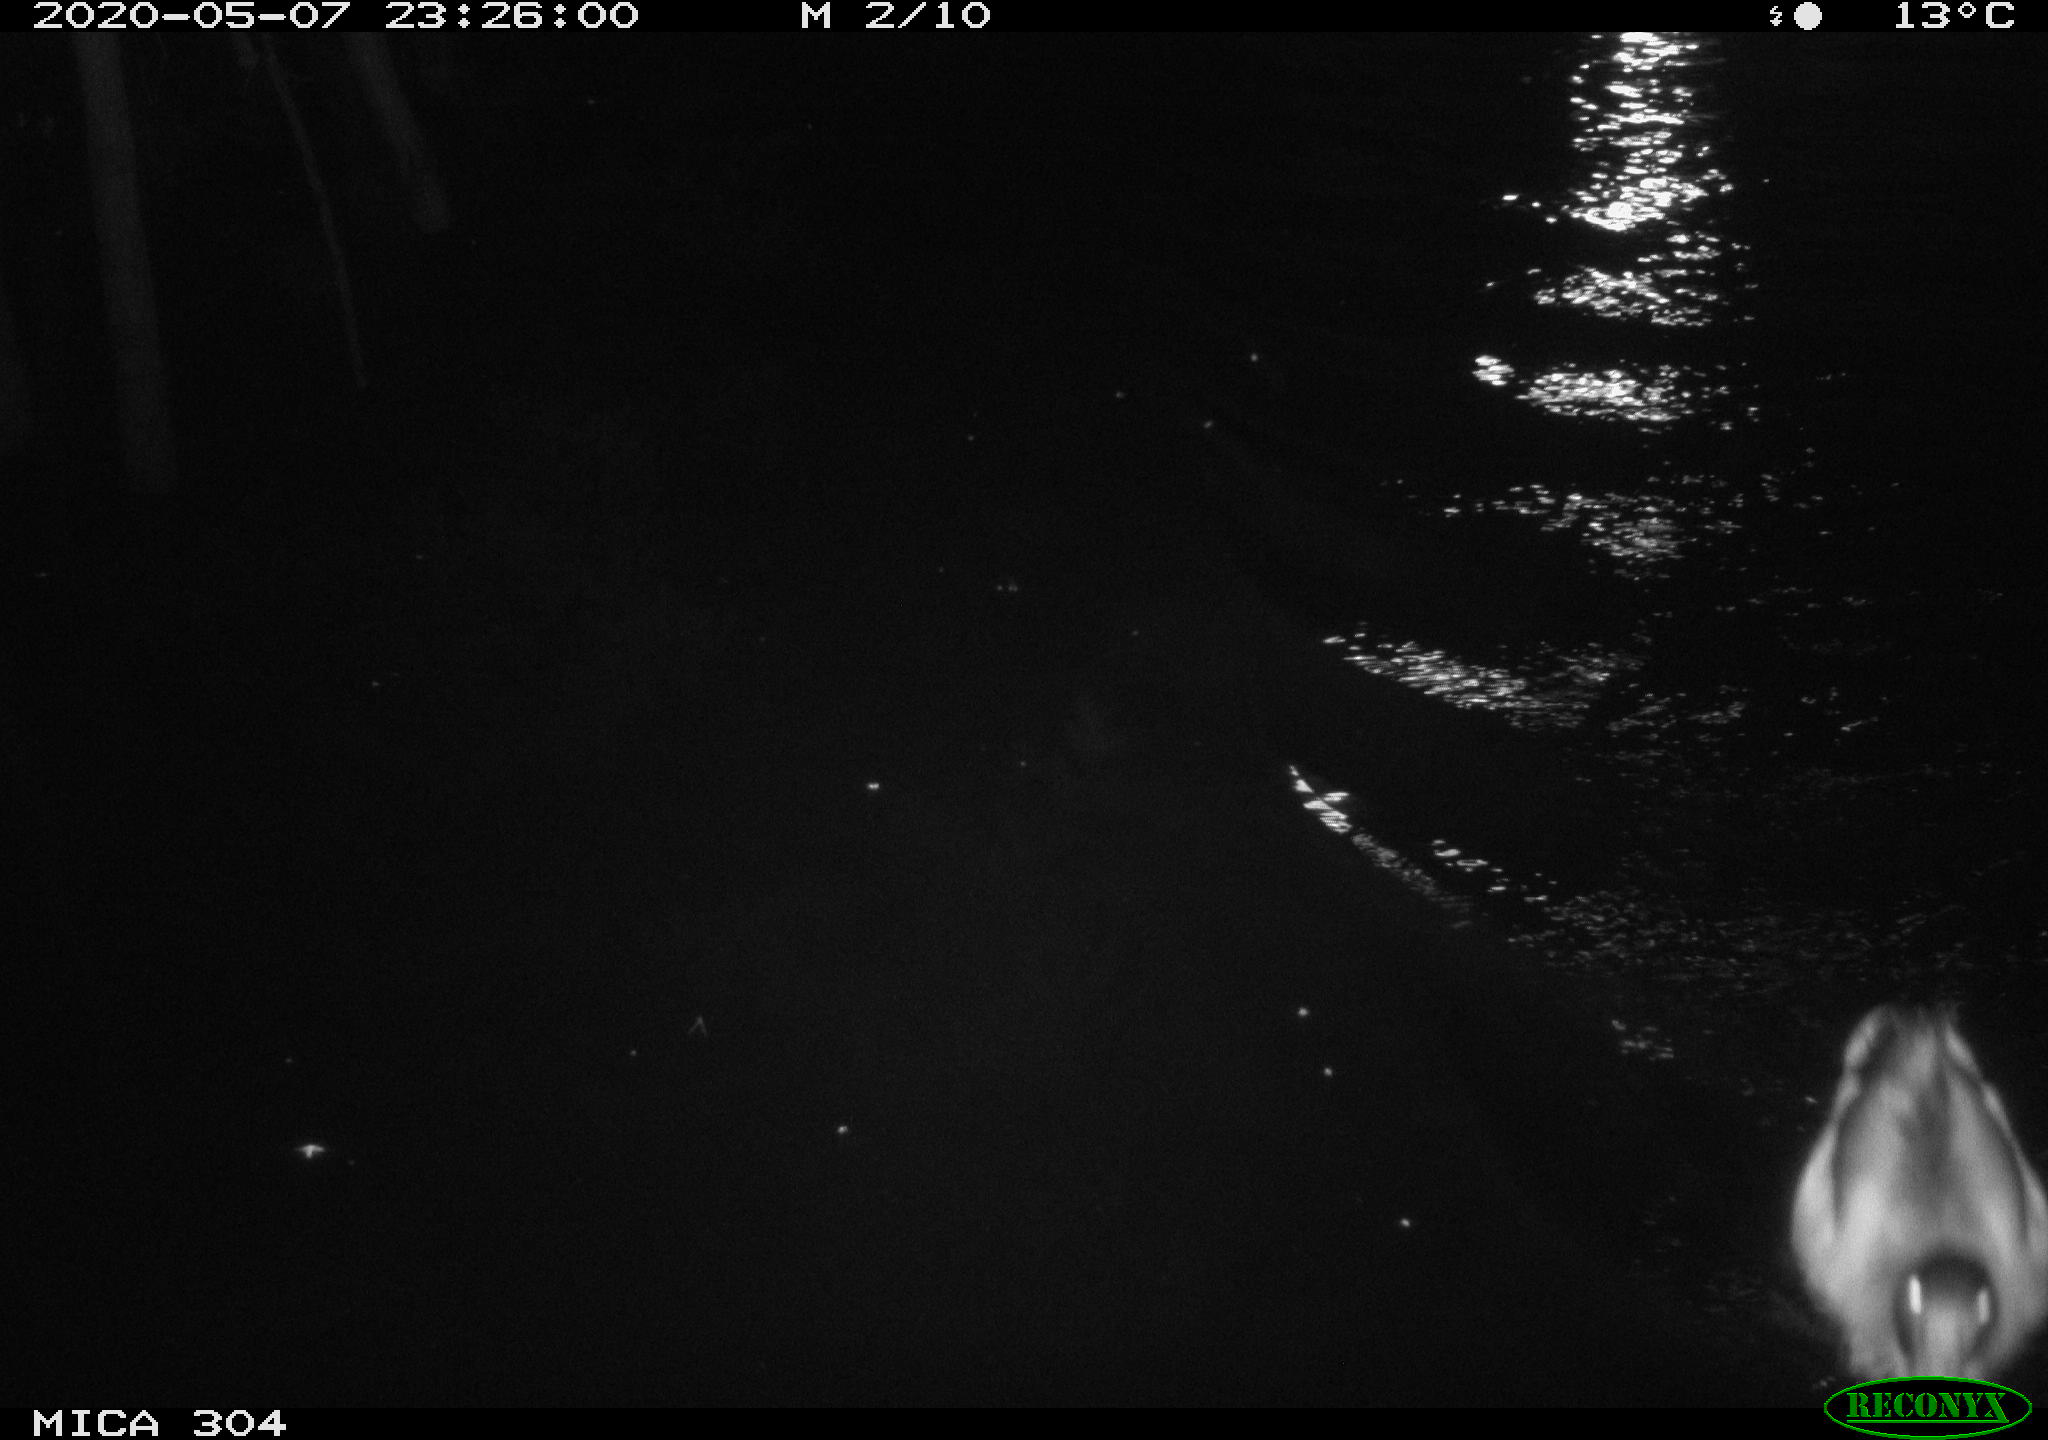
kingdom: Animalia
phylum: Chordata
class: Aves
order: Anseriformes
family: Anatidae
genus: Anas
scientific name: Anas platyrhynchos
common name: Mallard
